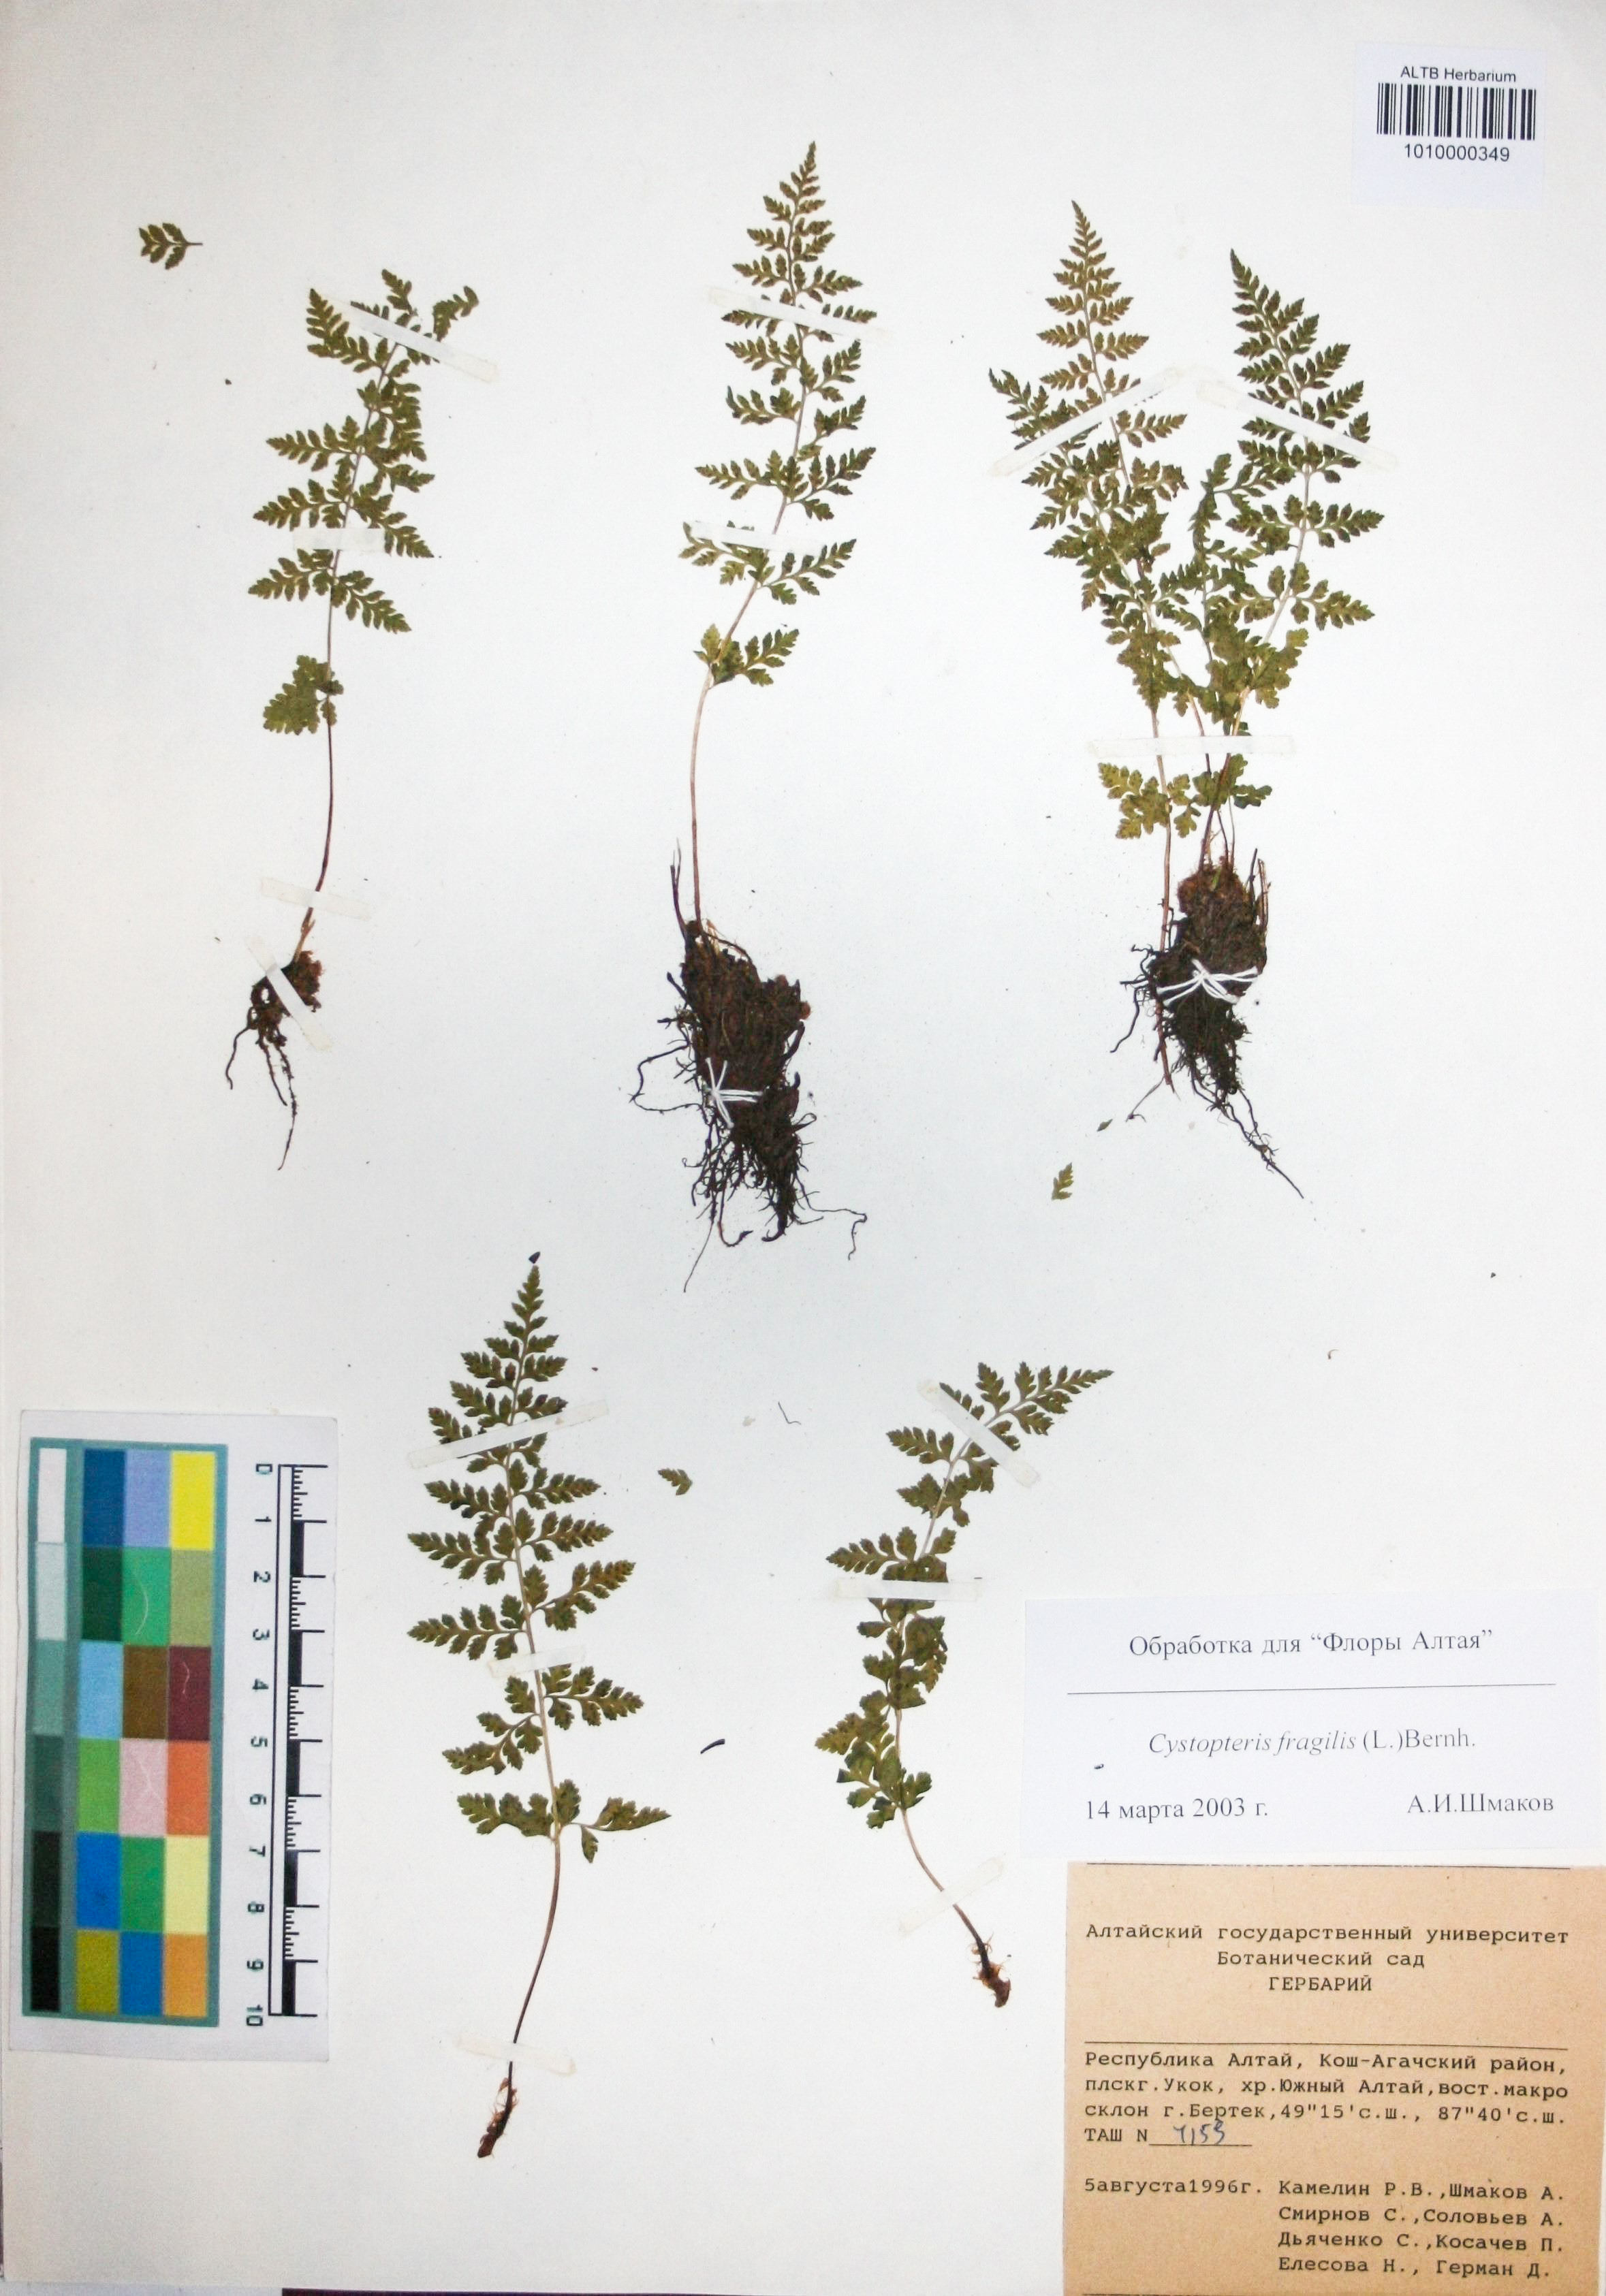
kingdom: Plantae
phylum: Tracheophyta
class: Polypodiopsida
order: Polypodiales
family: Cystopteridaceae
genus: Cystopteris
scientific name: Cystopteris fragilis
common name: Brittle bladder fern
